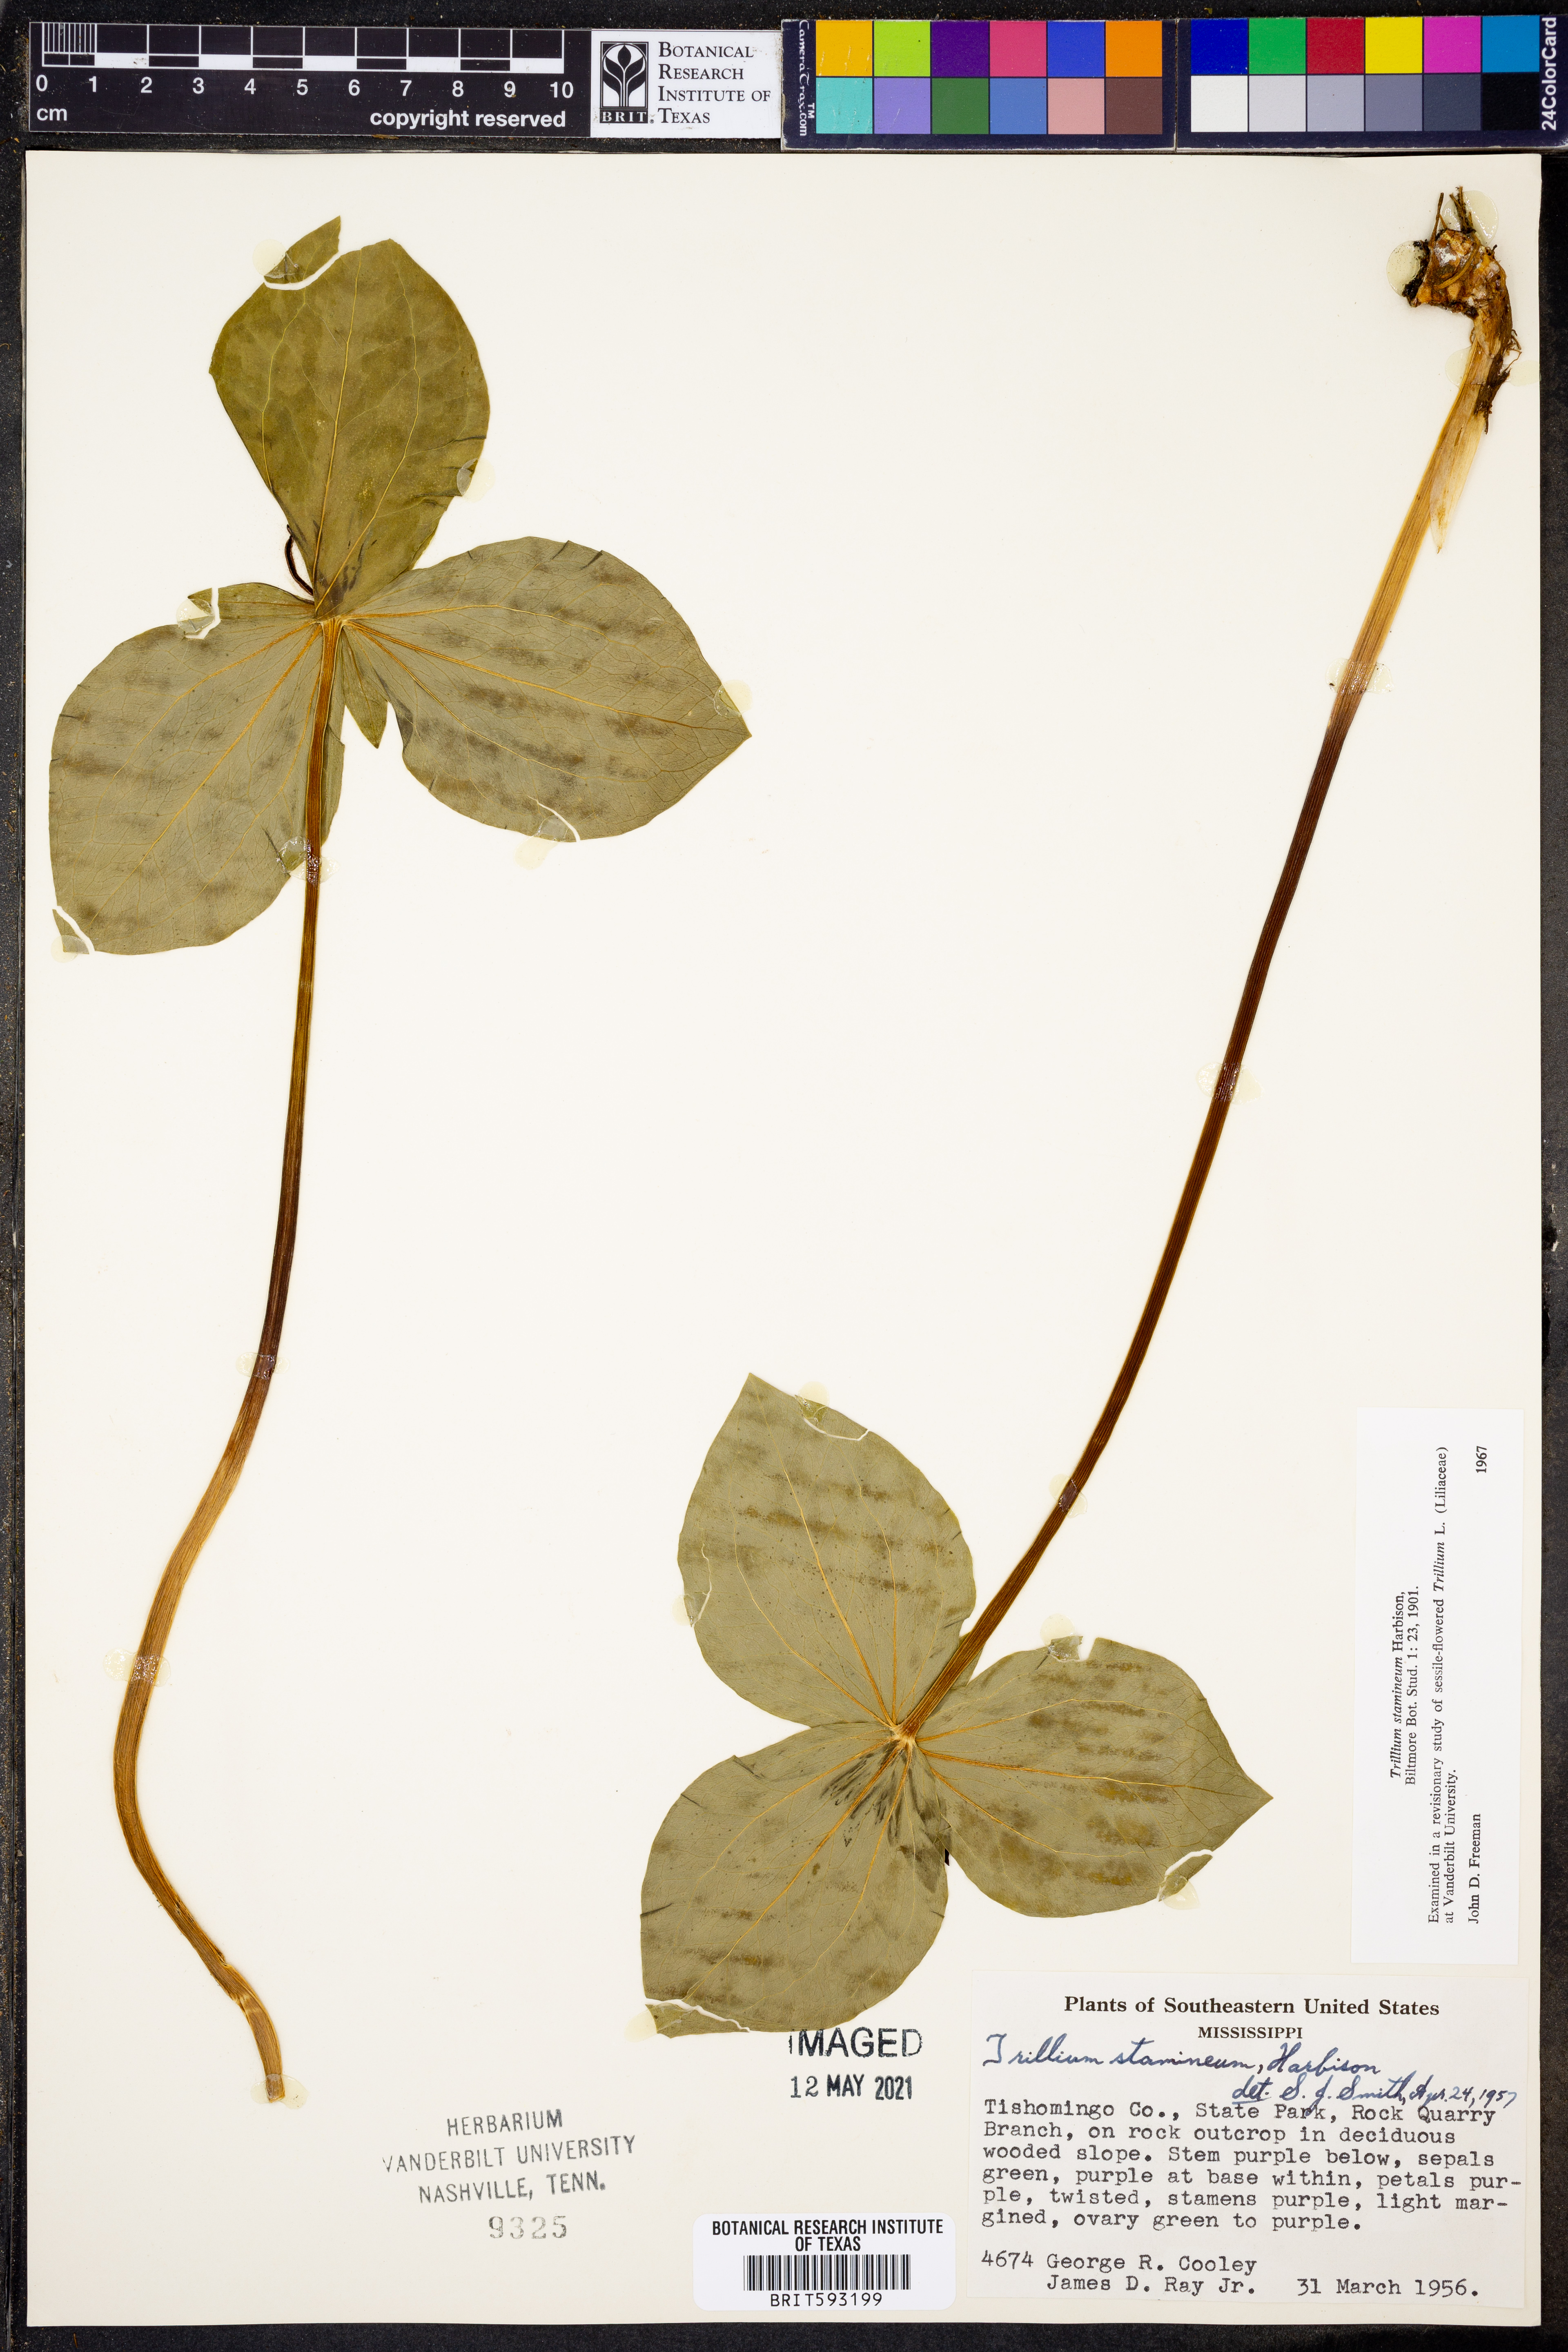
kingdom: Plantae
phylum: Tracheophyta
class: Liliopsida
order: Liliales
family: Melanthiaceae
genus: Trillium
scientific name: Trillium stamineum
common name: Blue ridge wakerobin
